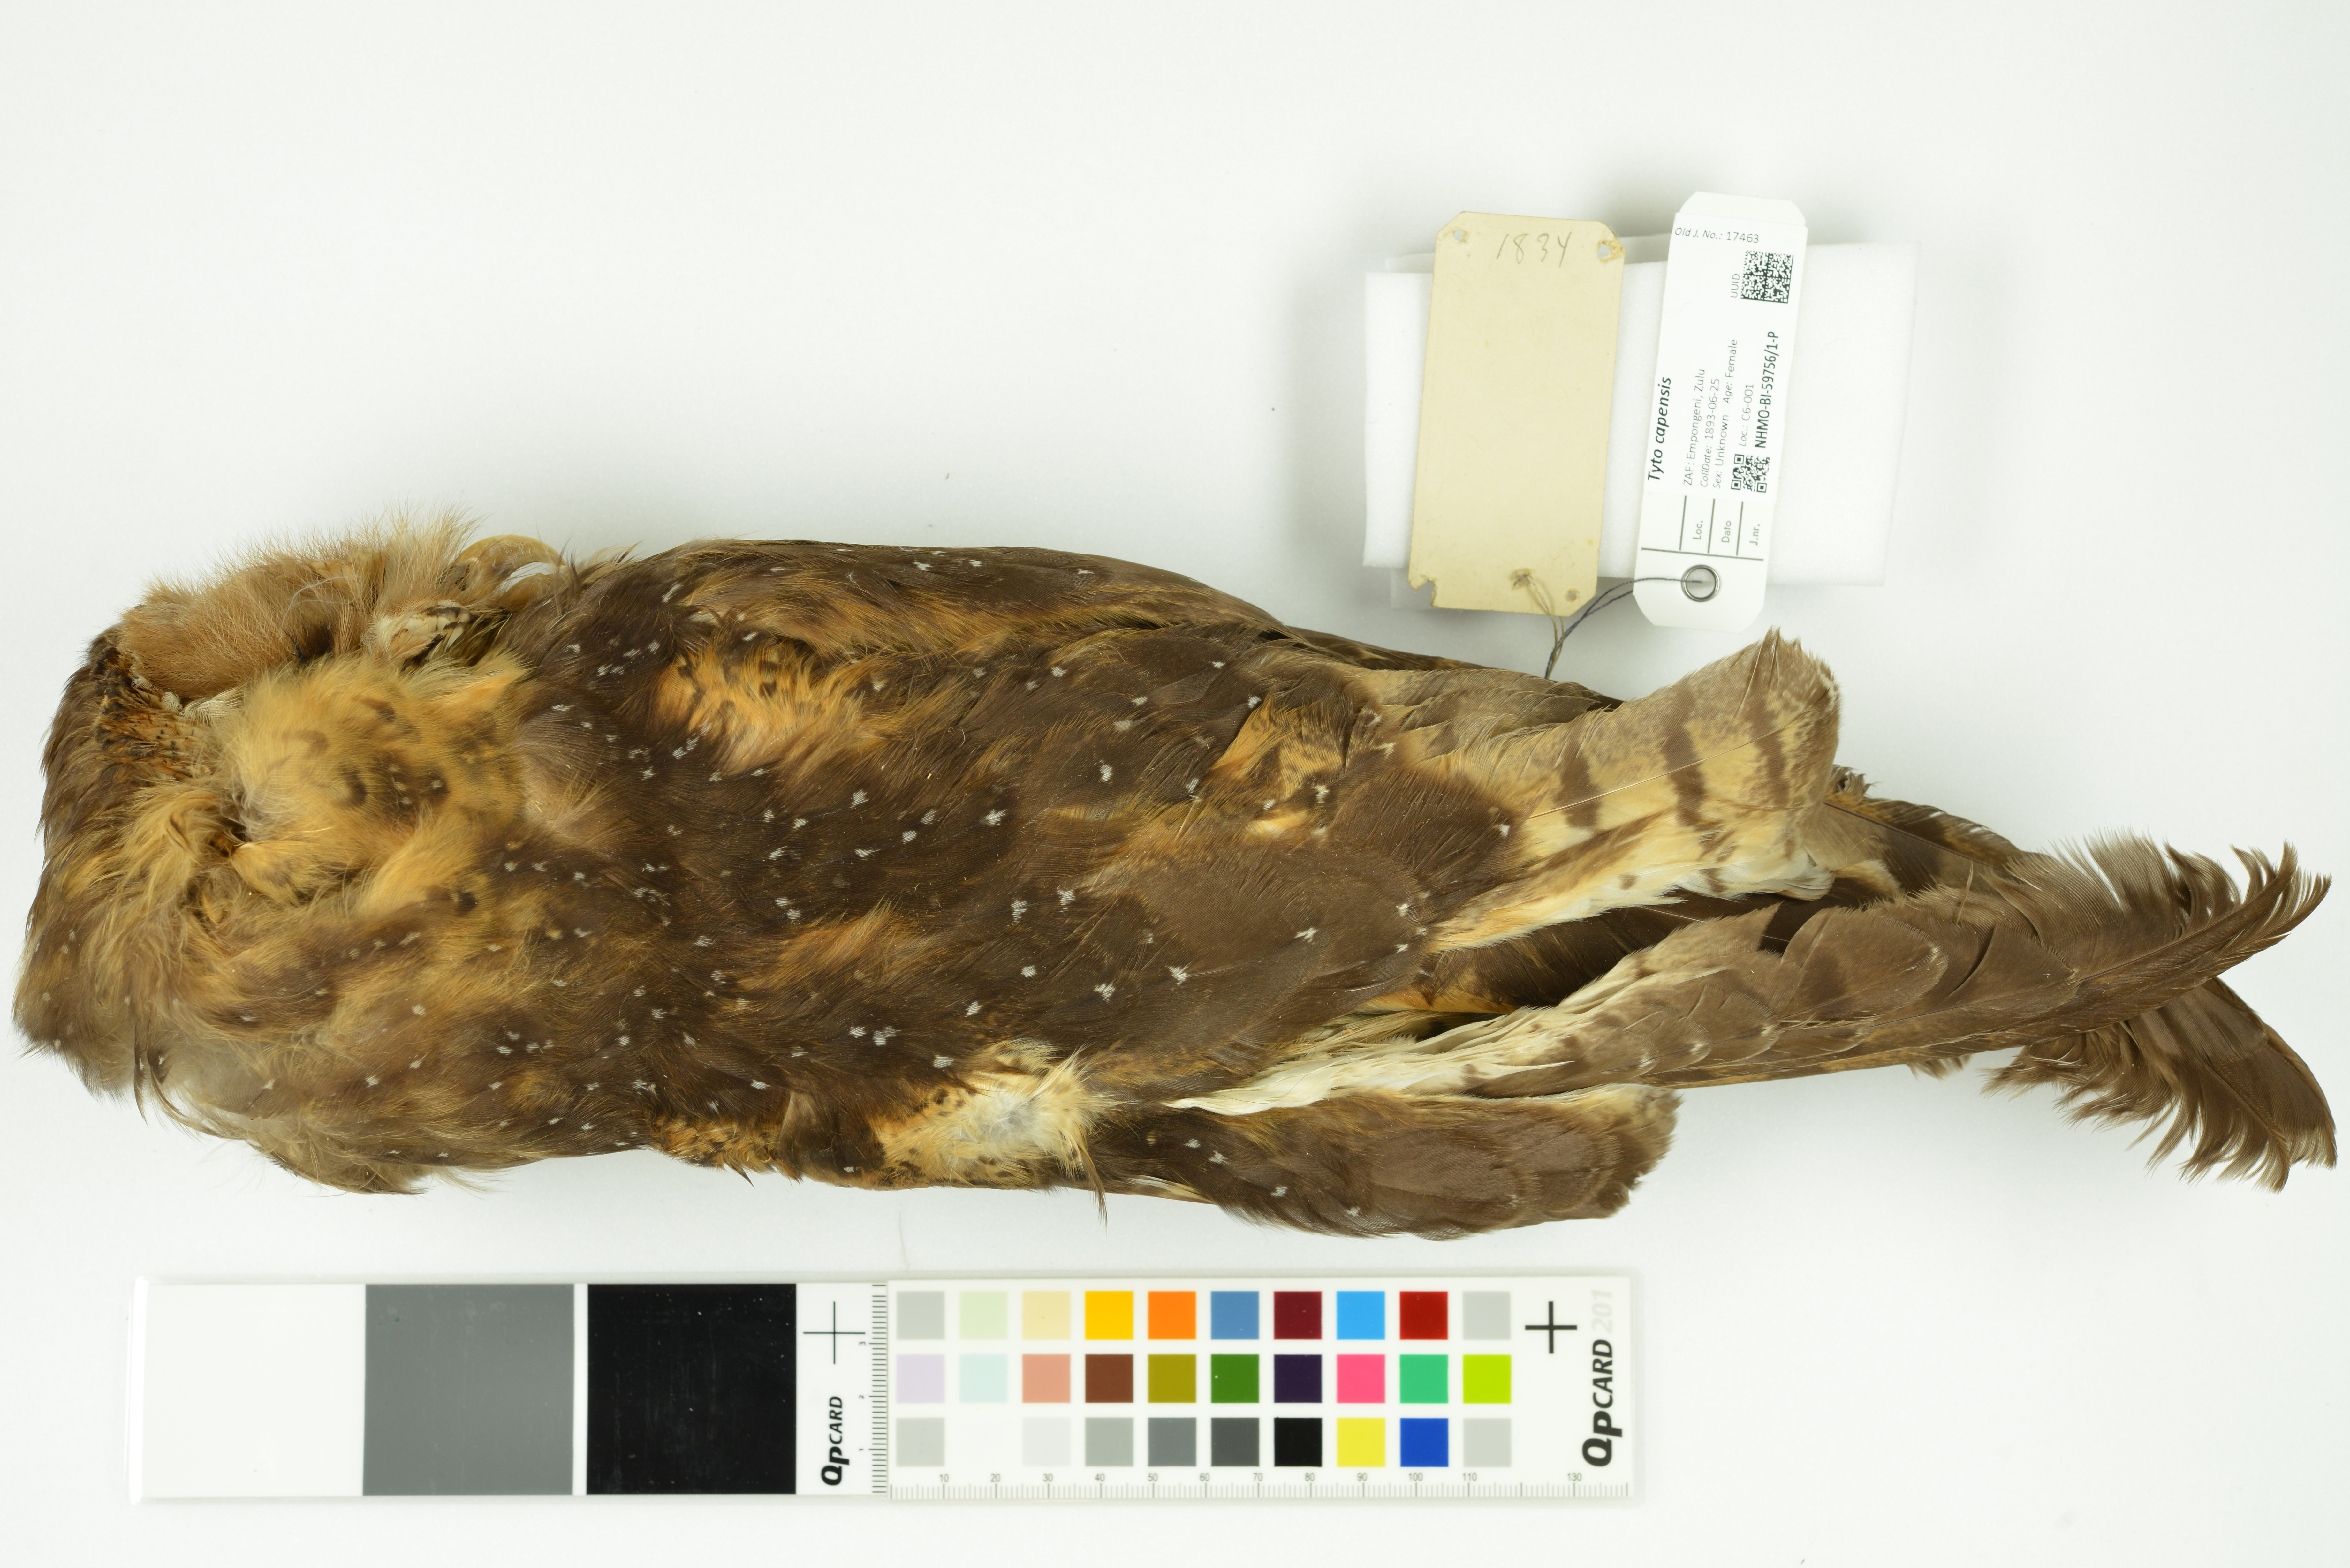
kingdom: Animalia
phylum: Chordata
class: Aves
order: Strigiformes
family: Tytonidae
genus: Tyto
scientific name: Tyto capensis
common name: African grass-owl
